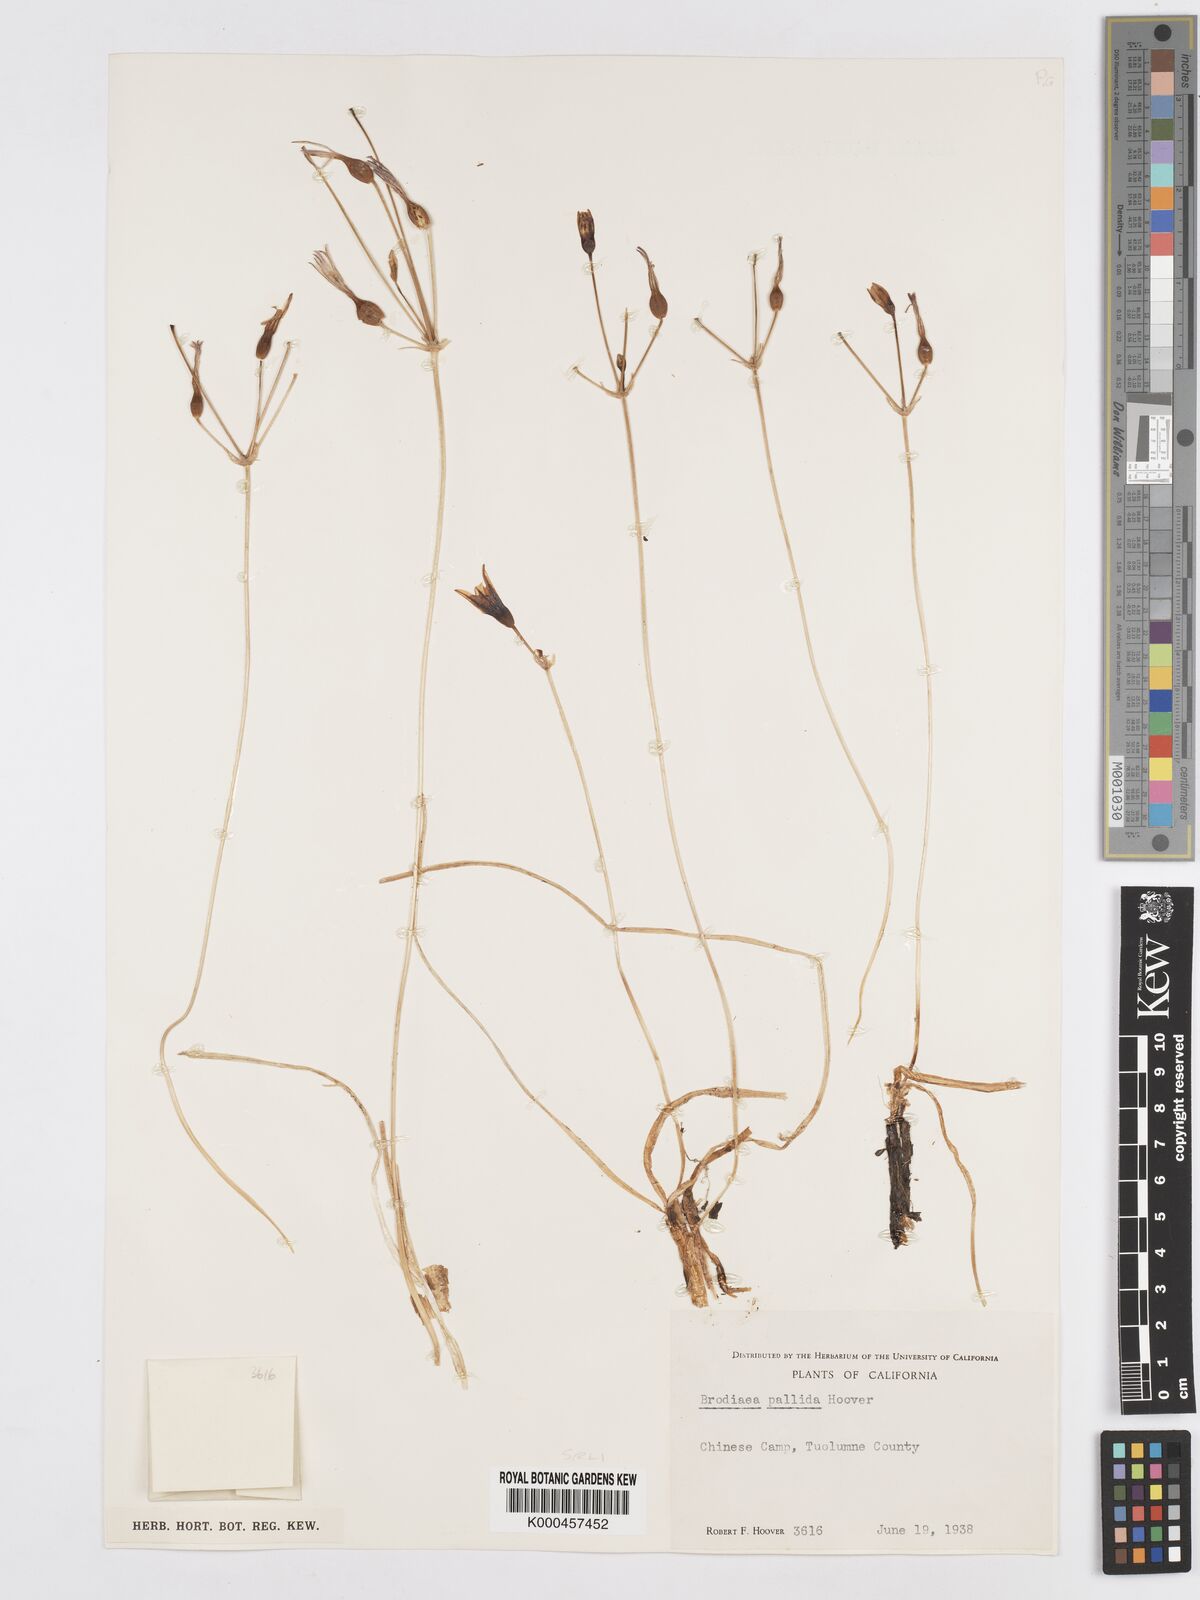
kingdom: Plantae
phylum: Tracheophyta
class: Liliopsida
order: Asparagales
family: Asparagaceae
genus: Brodiaea
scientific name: Brodiaea pallida
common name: Chinese camp brodiaea
